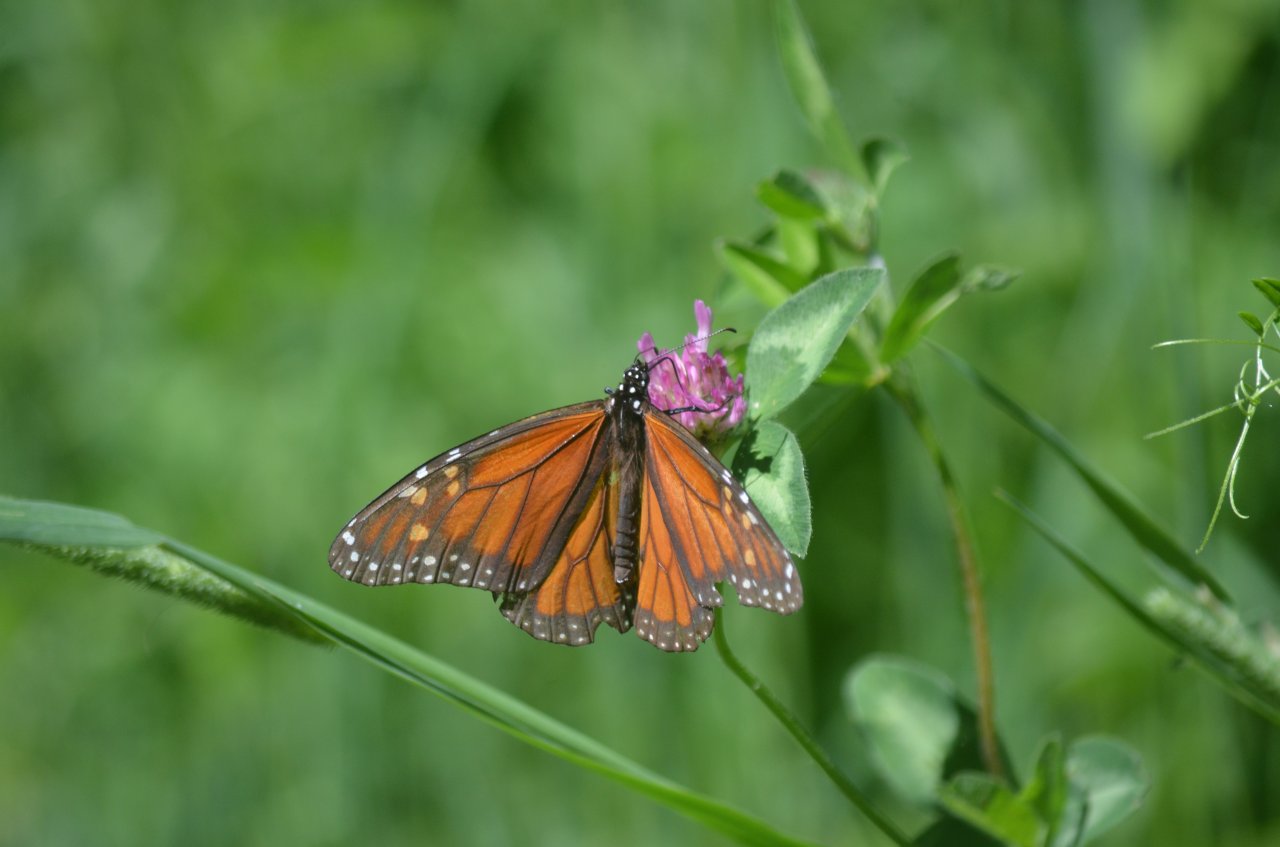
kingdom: Animalia
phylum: Arthropoda
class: Insecta
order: Lepidoptera
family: Nymphalidae
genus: Danaus
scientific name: Danaus plexippus
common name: Monarch
